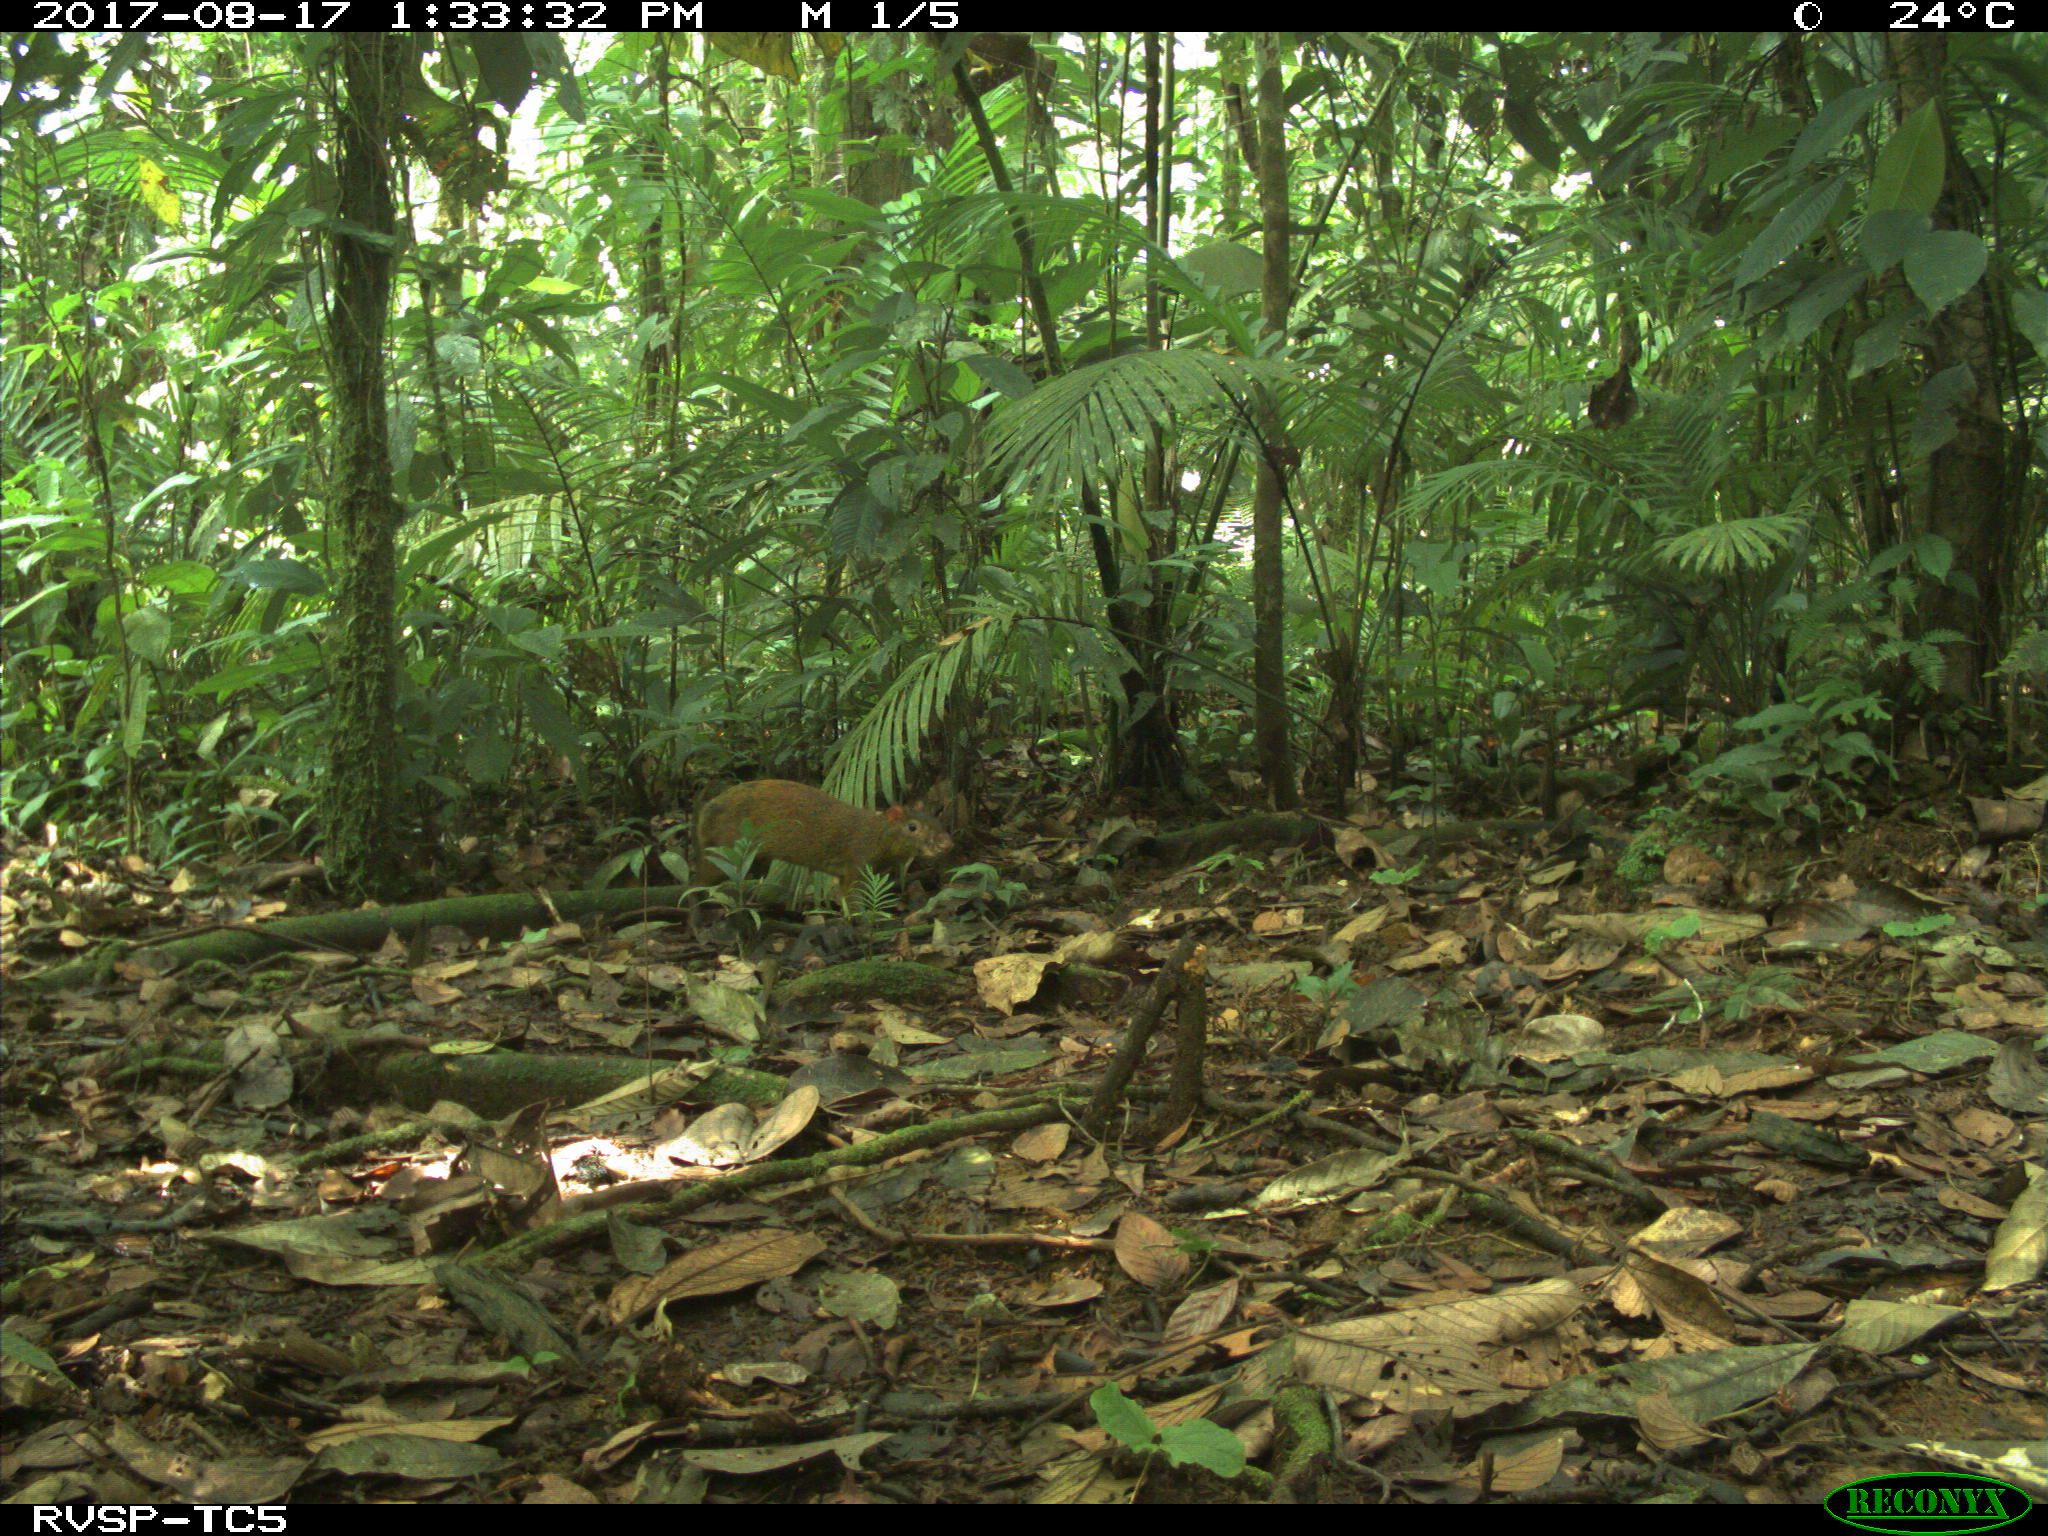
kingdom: Animalia
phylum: Chordata
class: Mammalia
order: Rodentia
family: Dasyproctidae
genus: Dasyprocta
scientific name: Dasyprocta punctata
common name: Central american agouti
